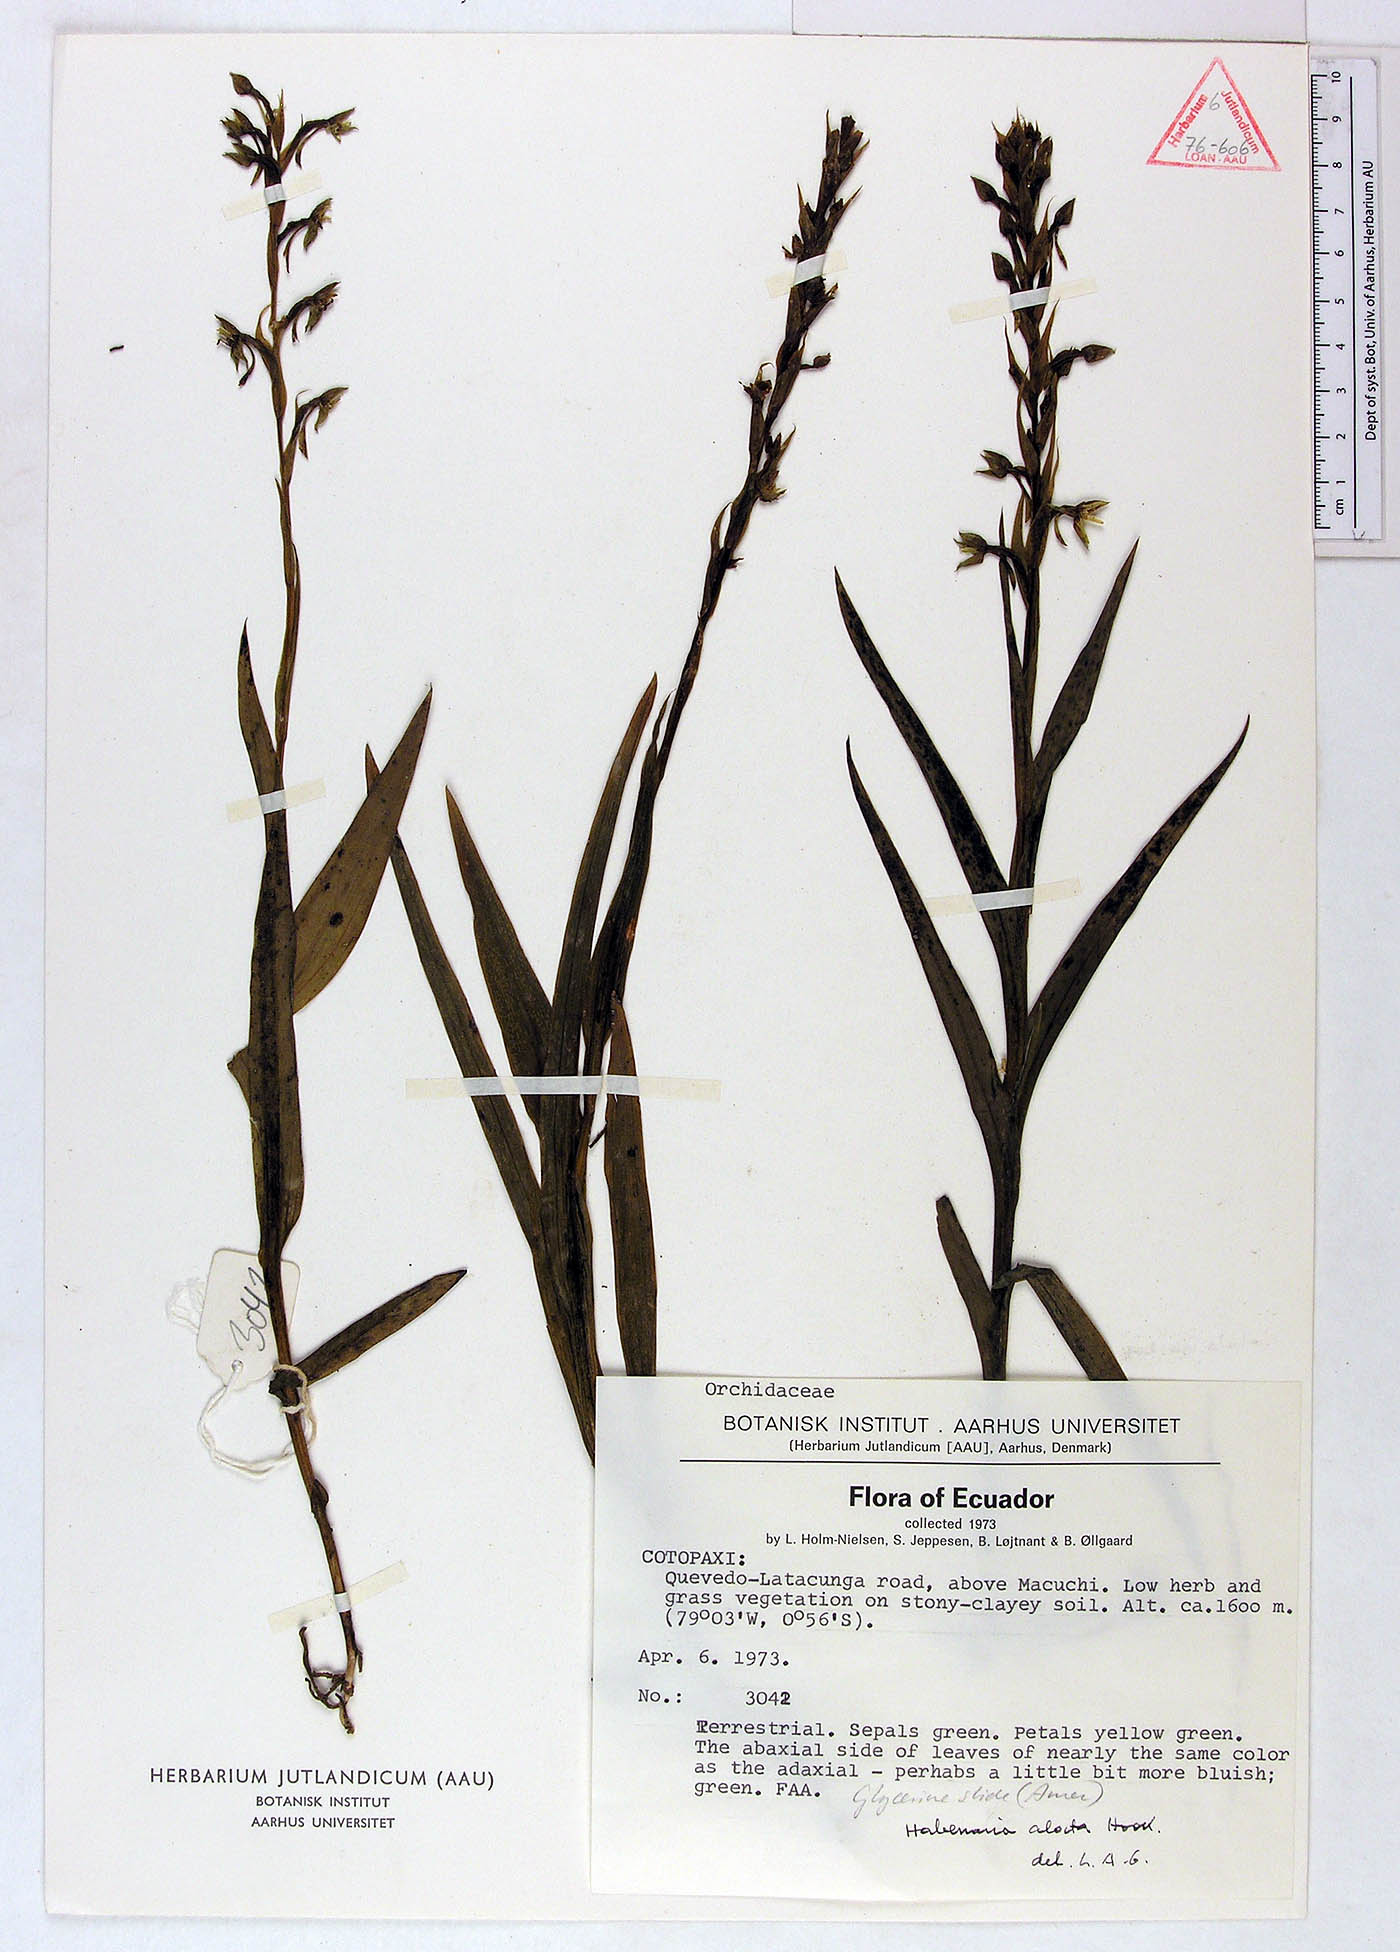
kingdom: Plantae
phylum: Tracheophyta
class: Liliopsida
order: Asparagales
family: Orchidaceae
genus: Habenaria
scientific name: Habenaria alata
